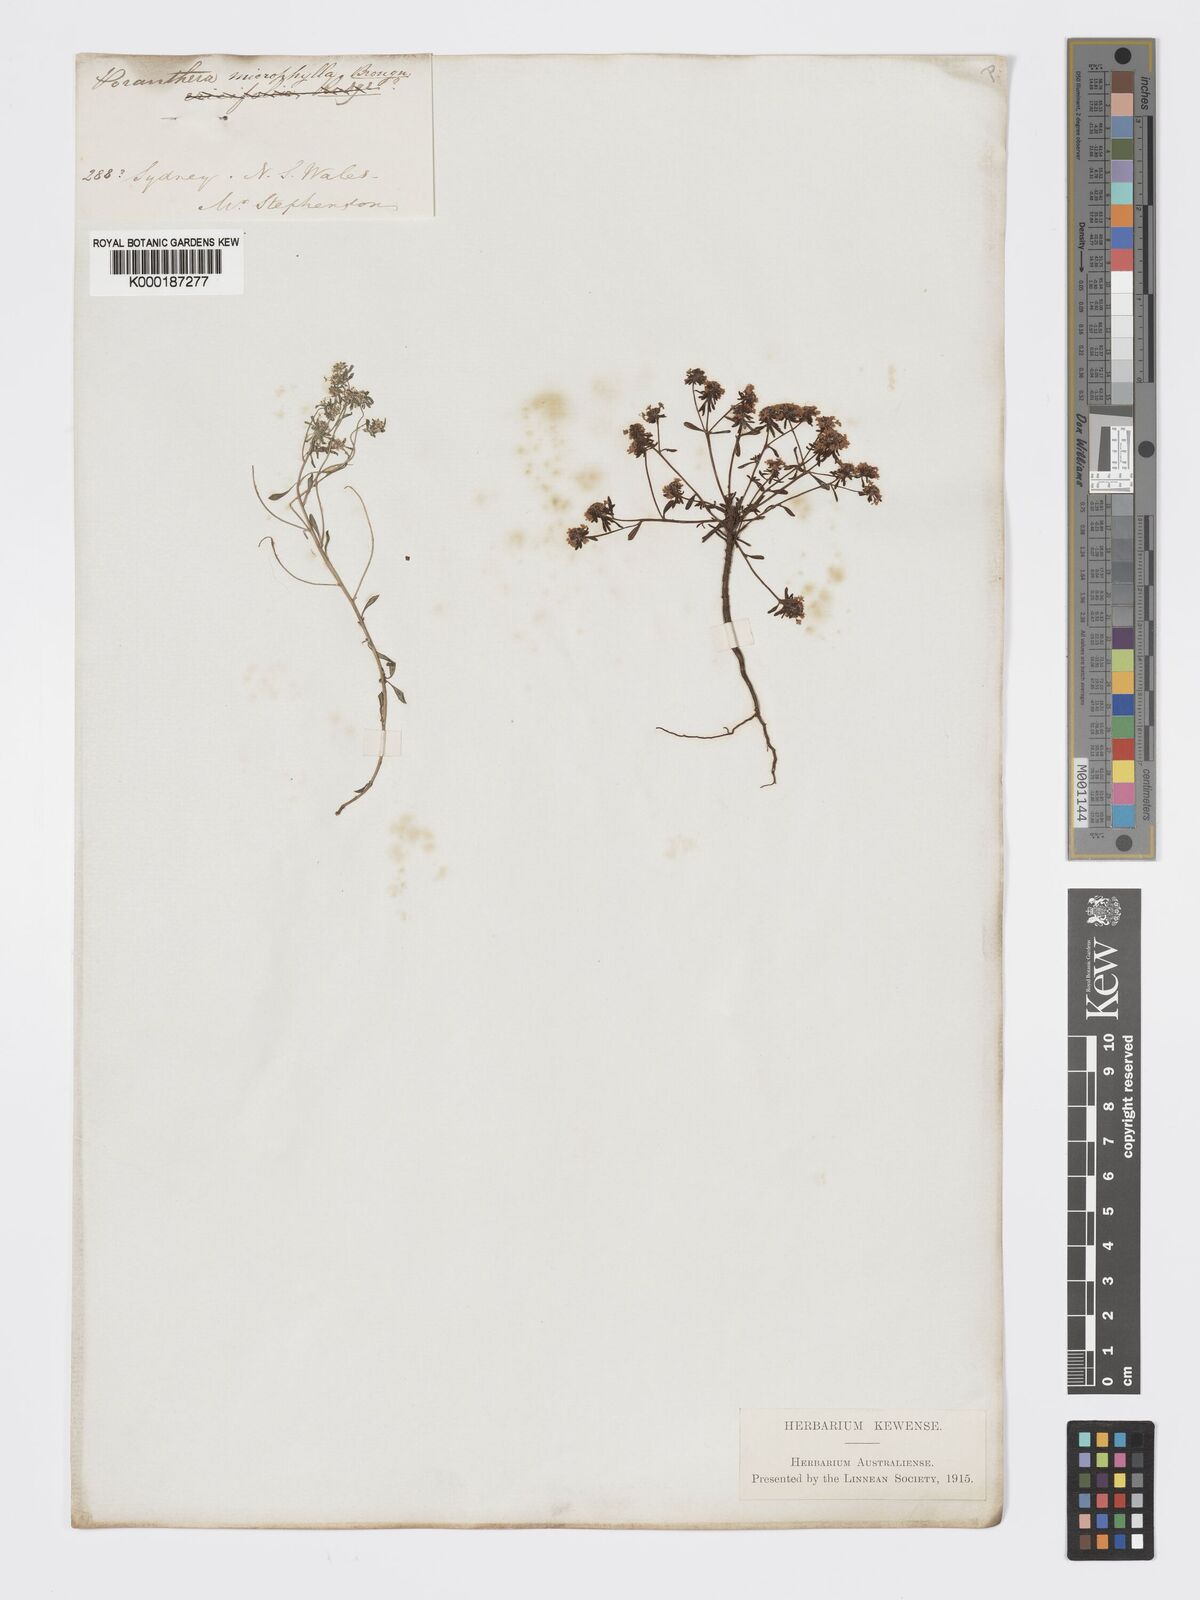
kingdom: Plantae
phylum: Tracheophyta
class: Magnoliopsida
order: Malpighiales
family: Phyllanthaceae
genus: Poranthera
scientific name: Poranthera microphylla
